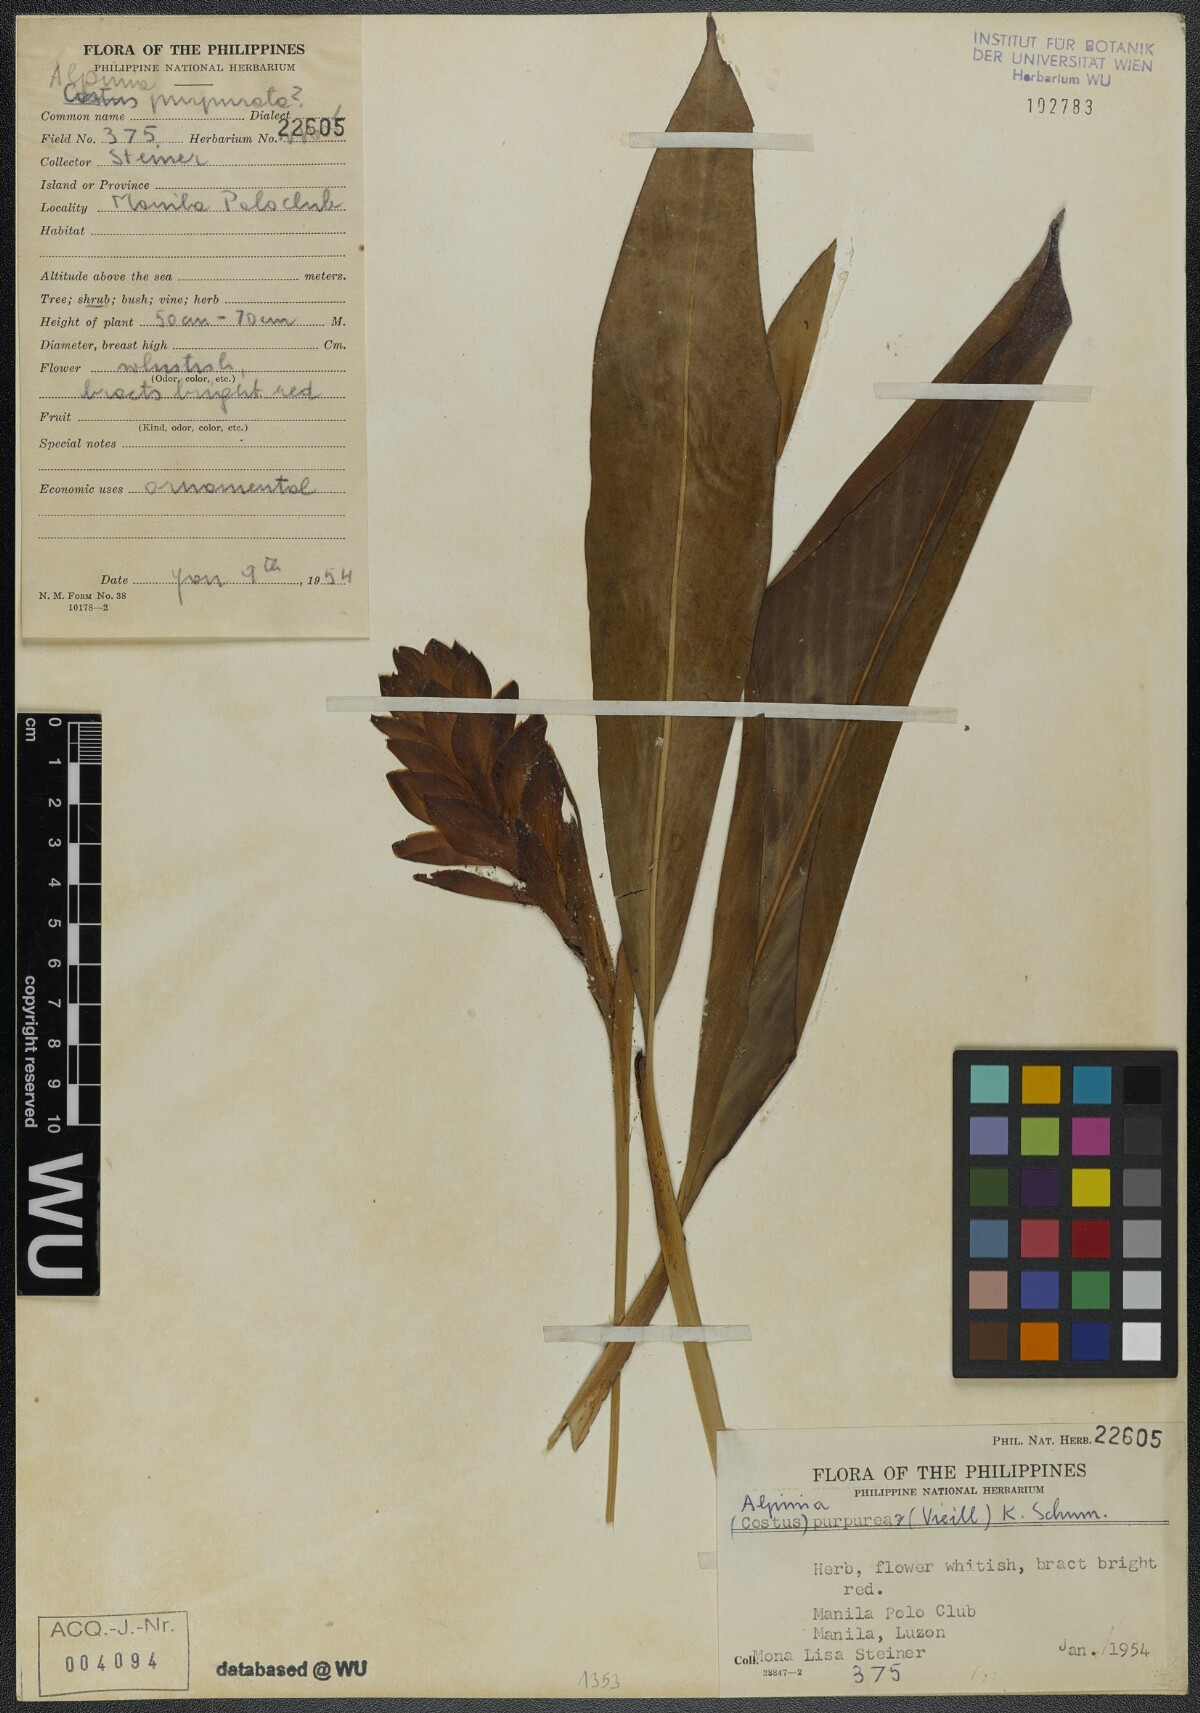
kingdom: Plantae
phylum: Tracheophyta
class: Liliopsida
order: Zingiberales
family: Zingiberaceae
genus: Alpinia
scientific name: Alpinia purpurata
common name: Red ginger
